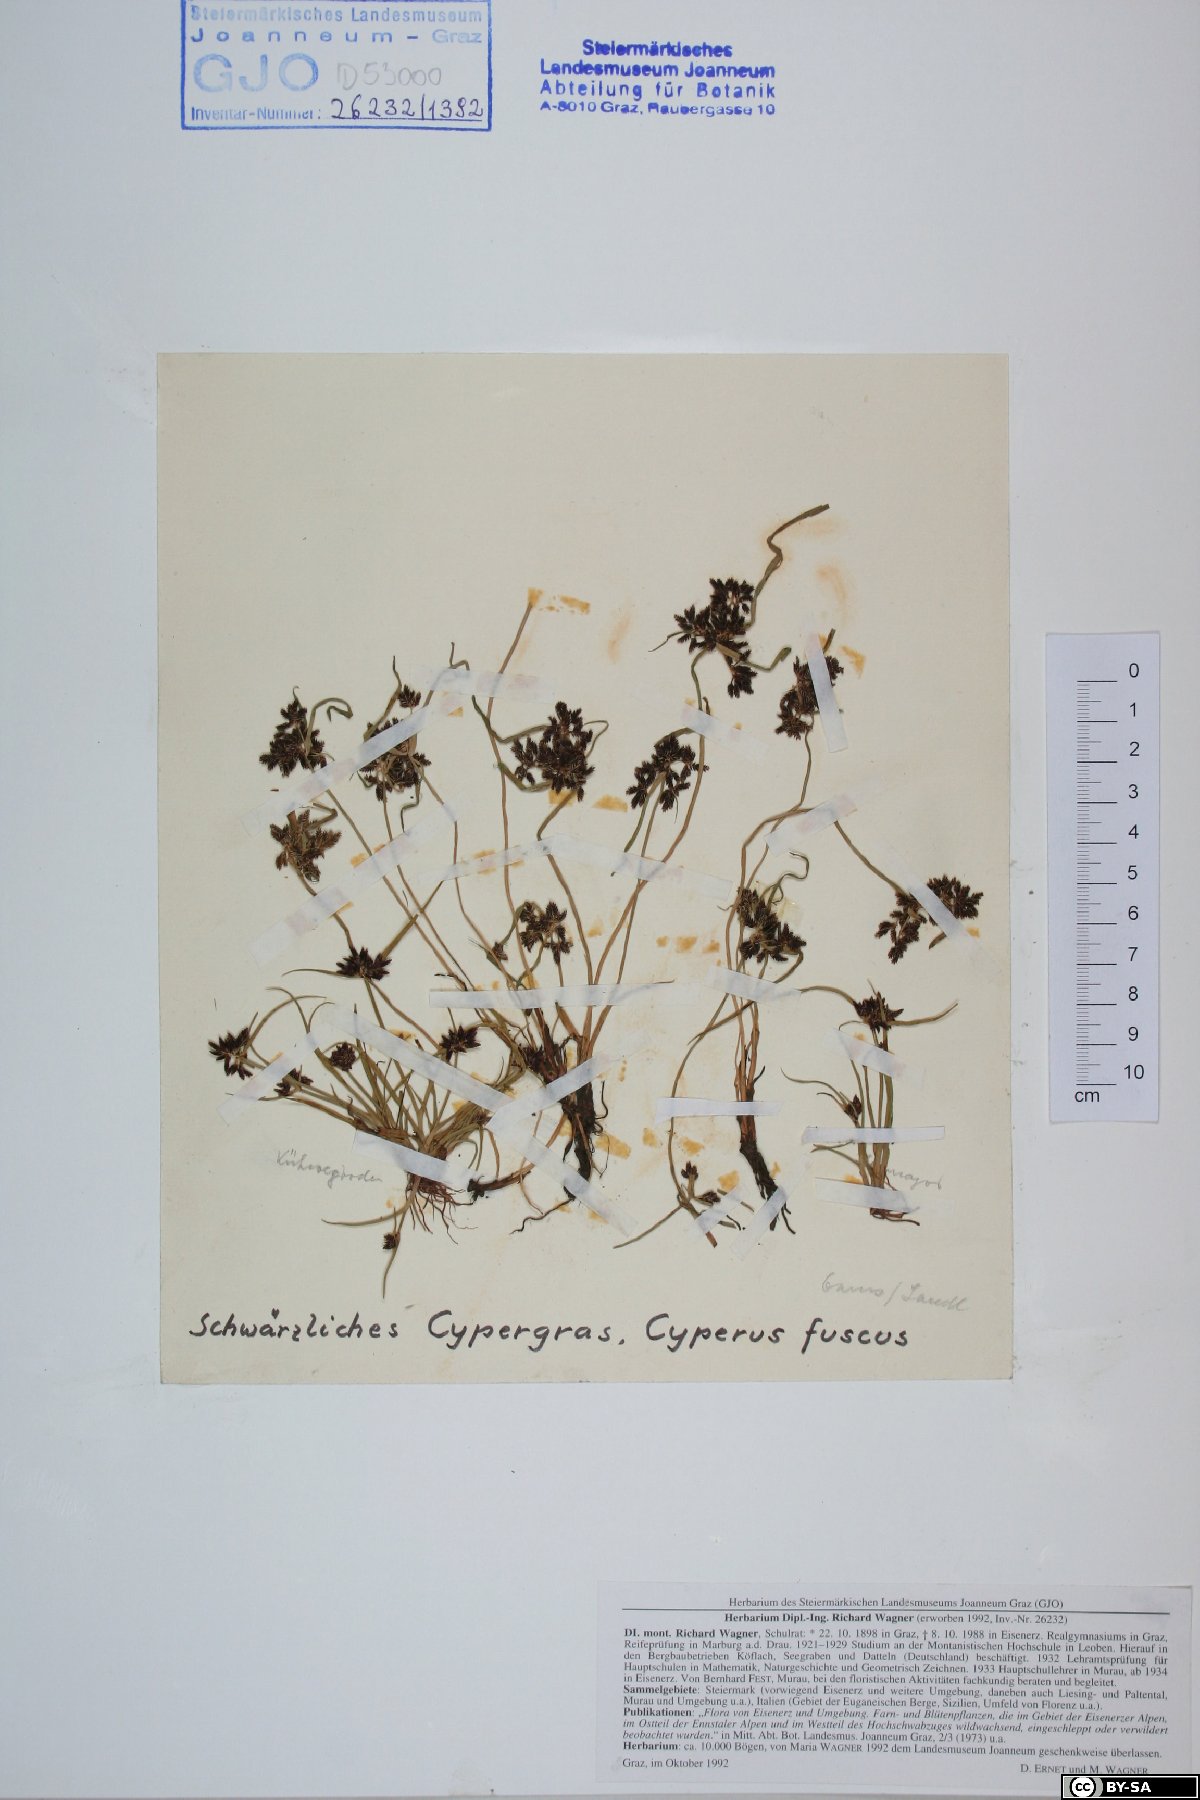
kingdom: Plantae
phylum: Tracheophyta
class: Liliopsida
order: Poales
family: Cyperaceae
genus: Cyperus
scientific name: Cyperus fuscus
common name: Brown galingale
